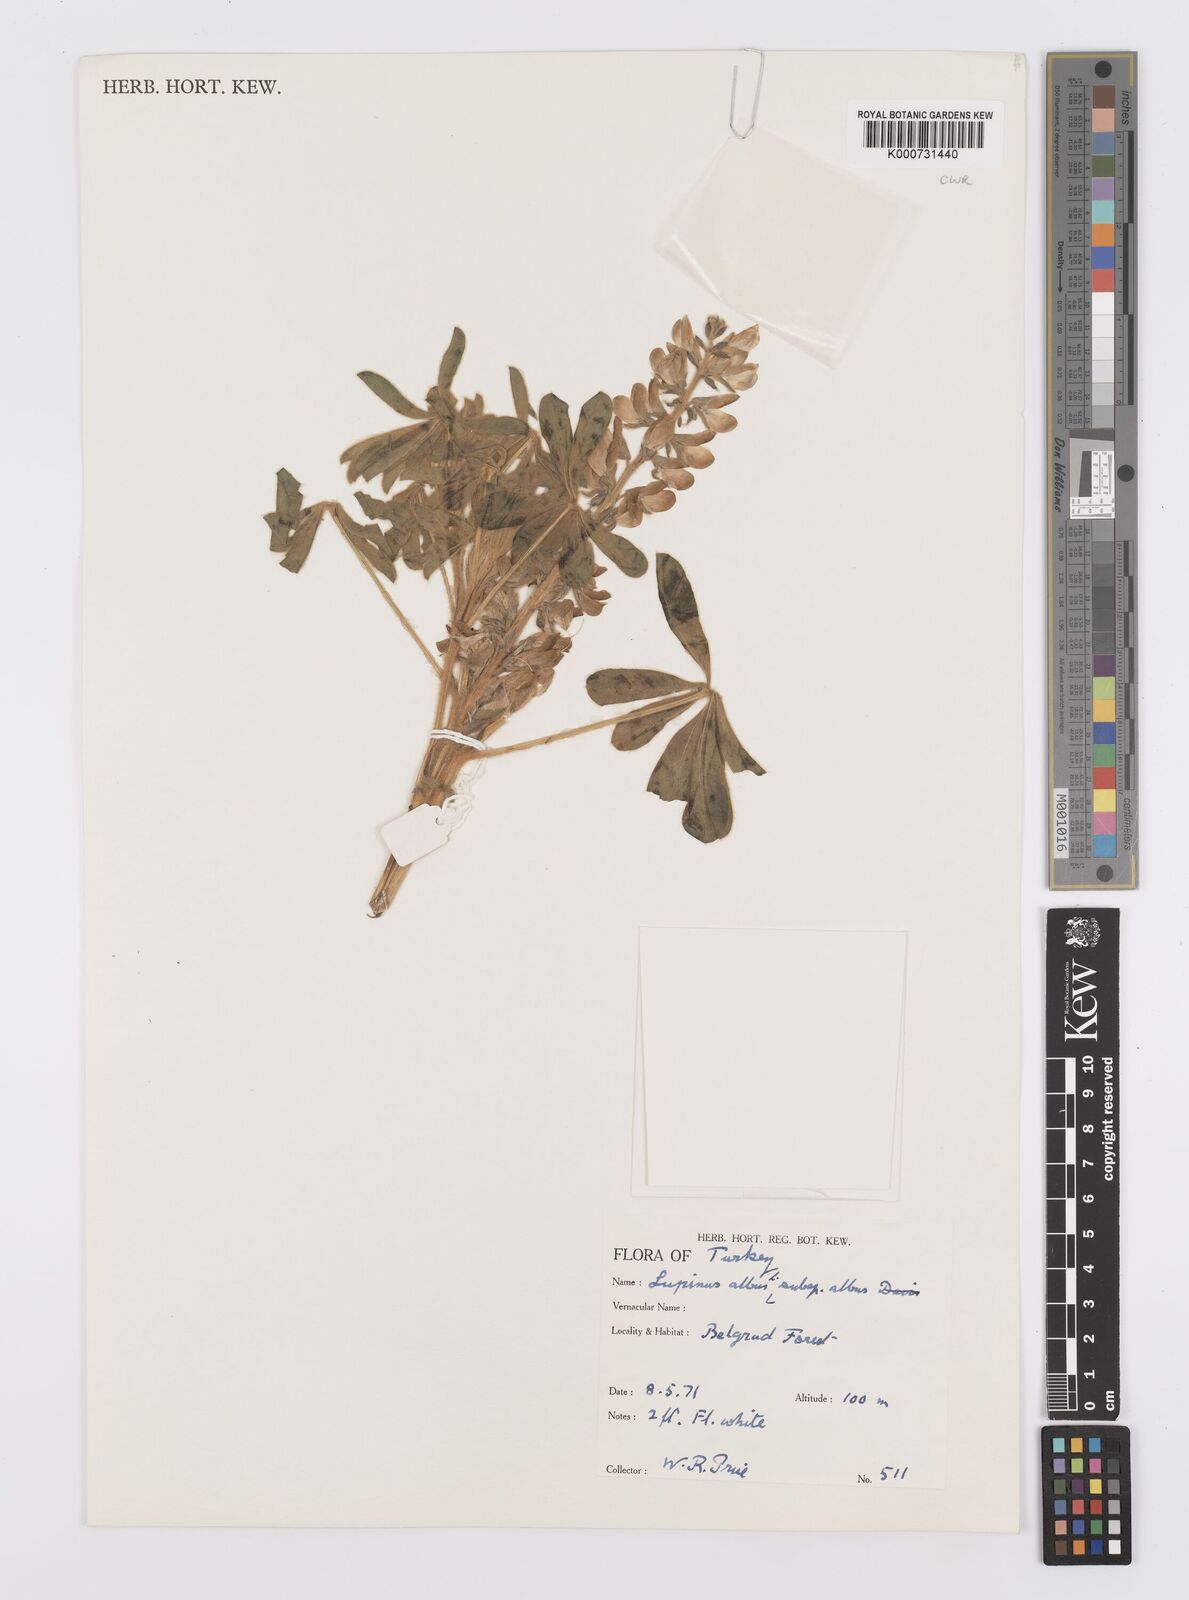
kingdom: Plantae
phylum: Tracheophyta
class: Magnoliopsida
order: Fabales
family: Fabaceae
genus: Lupinus
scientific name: Lupinus albus
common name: White lupin
